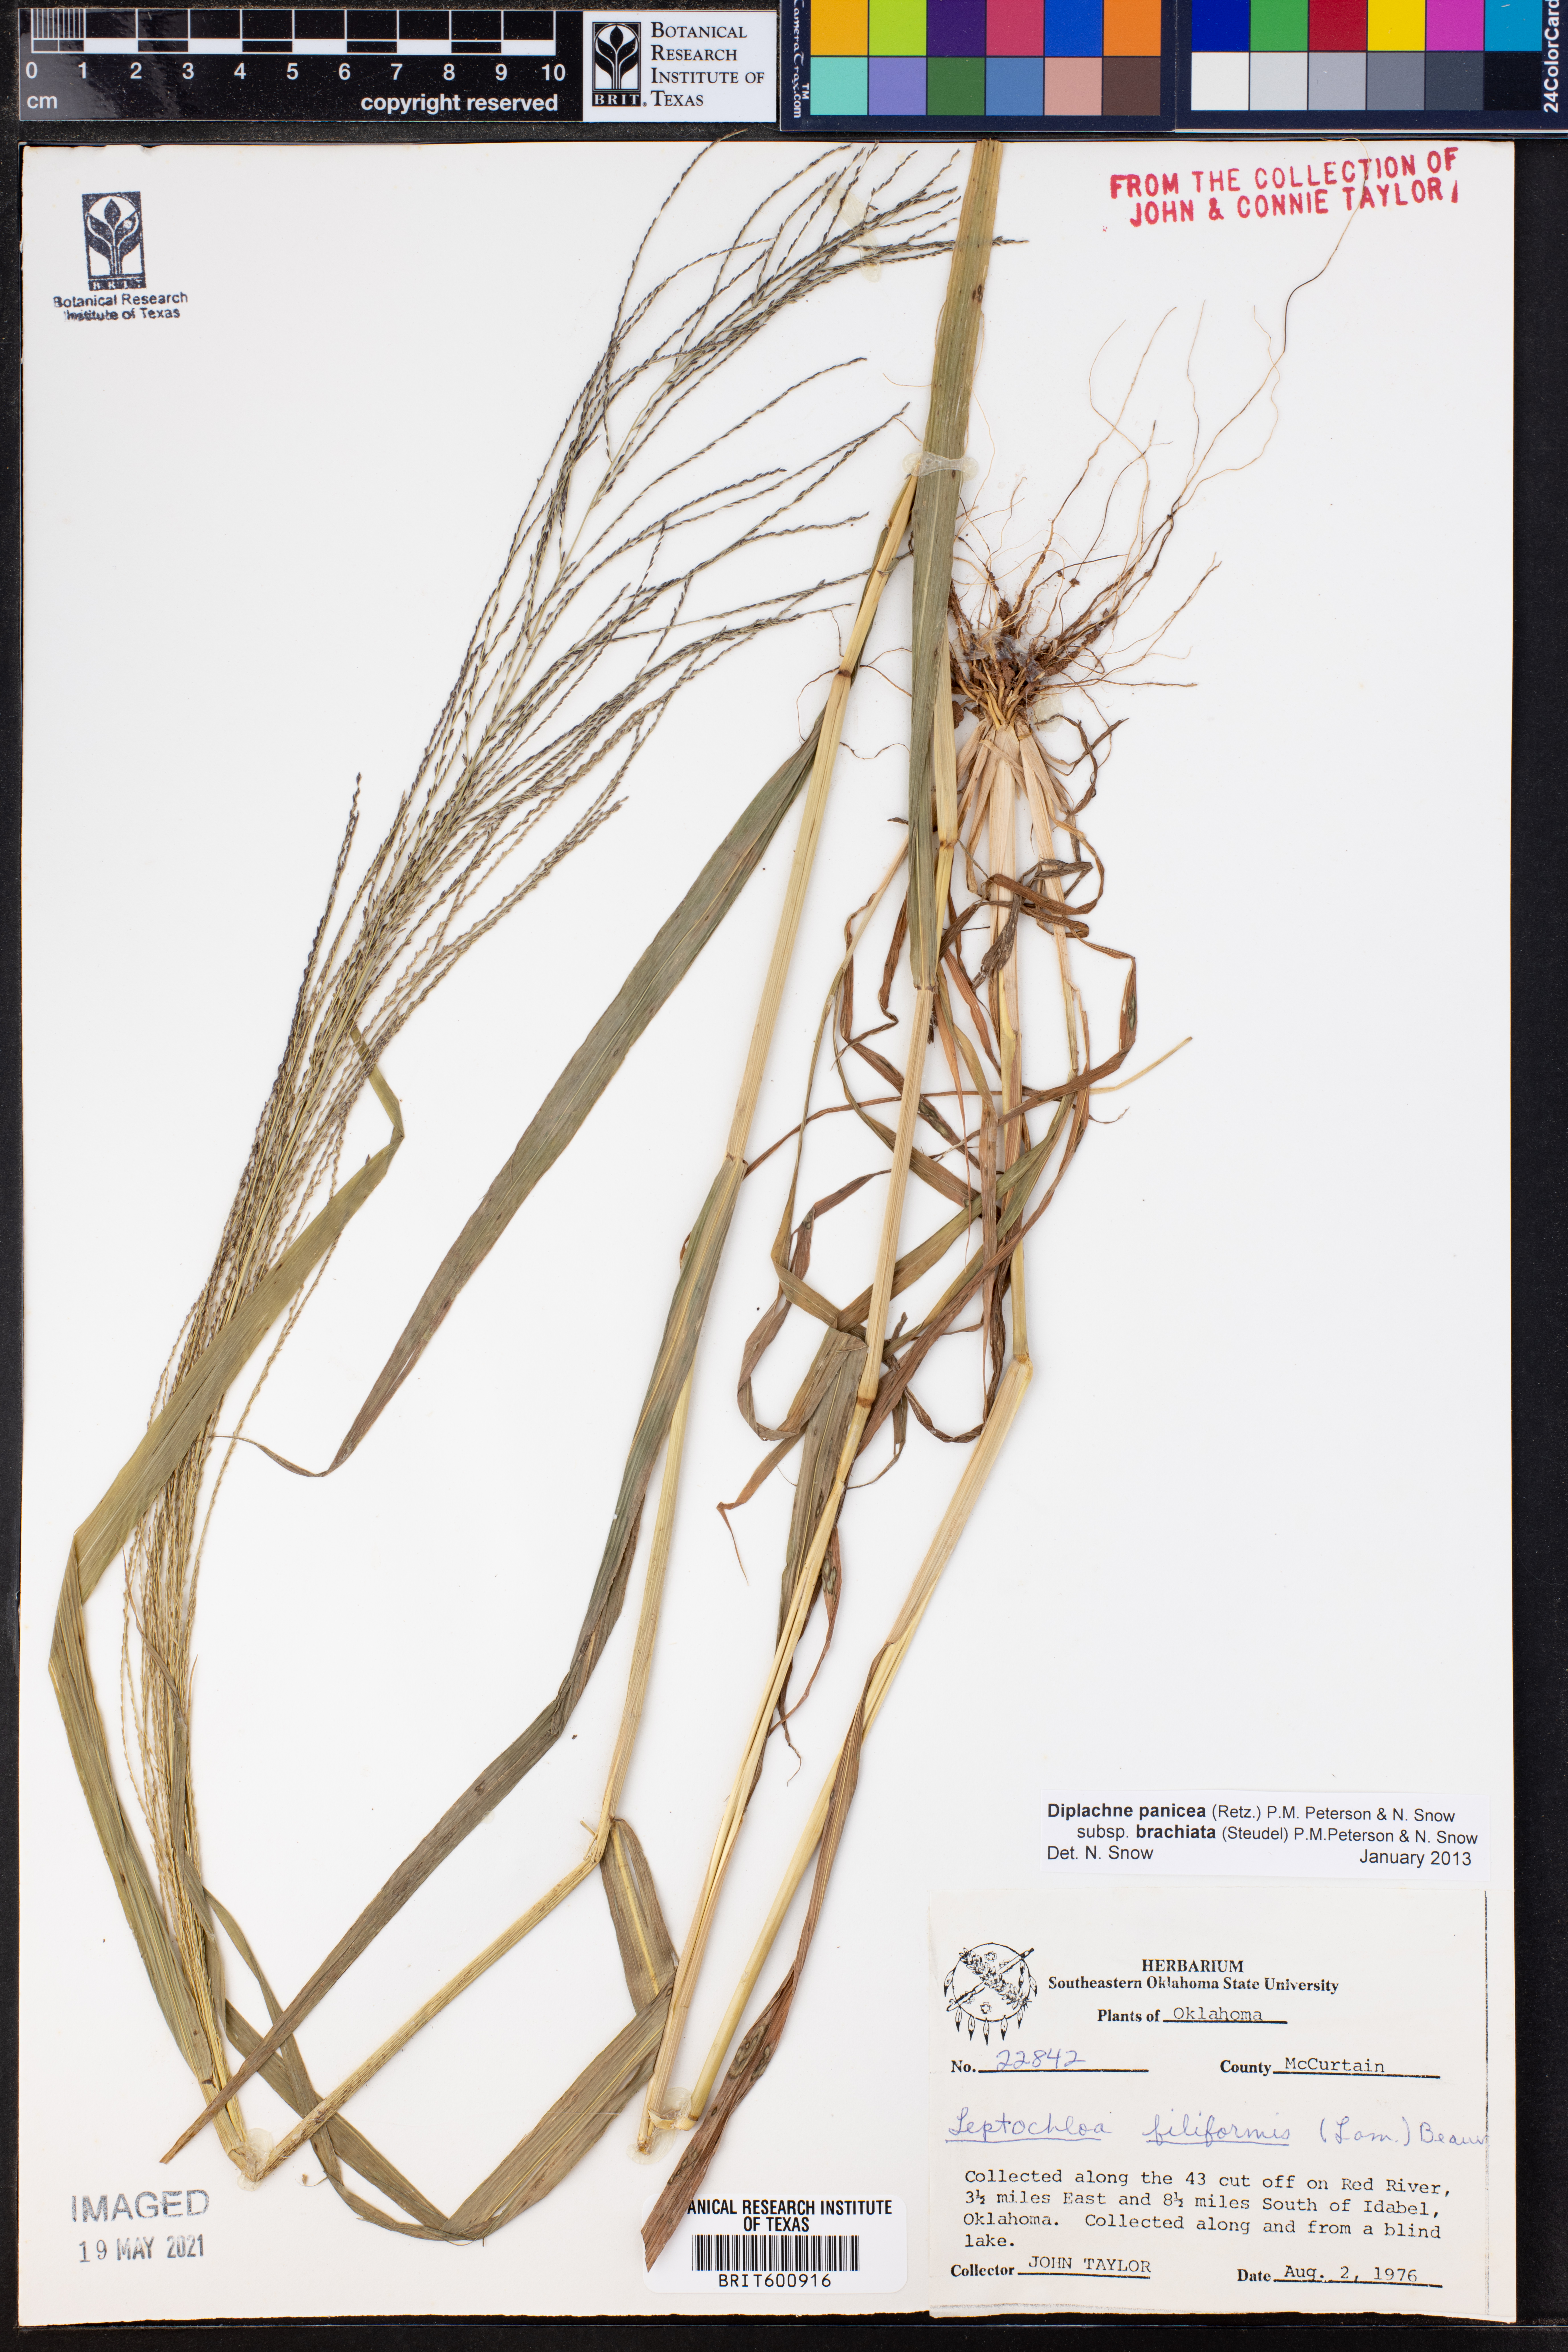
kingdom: Plantae
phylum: Tracheophyta
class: Liliopsida
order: Poales
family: Poaceae
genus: Diplachne
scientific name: Diplachne
